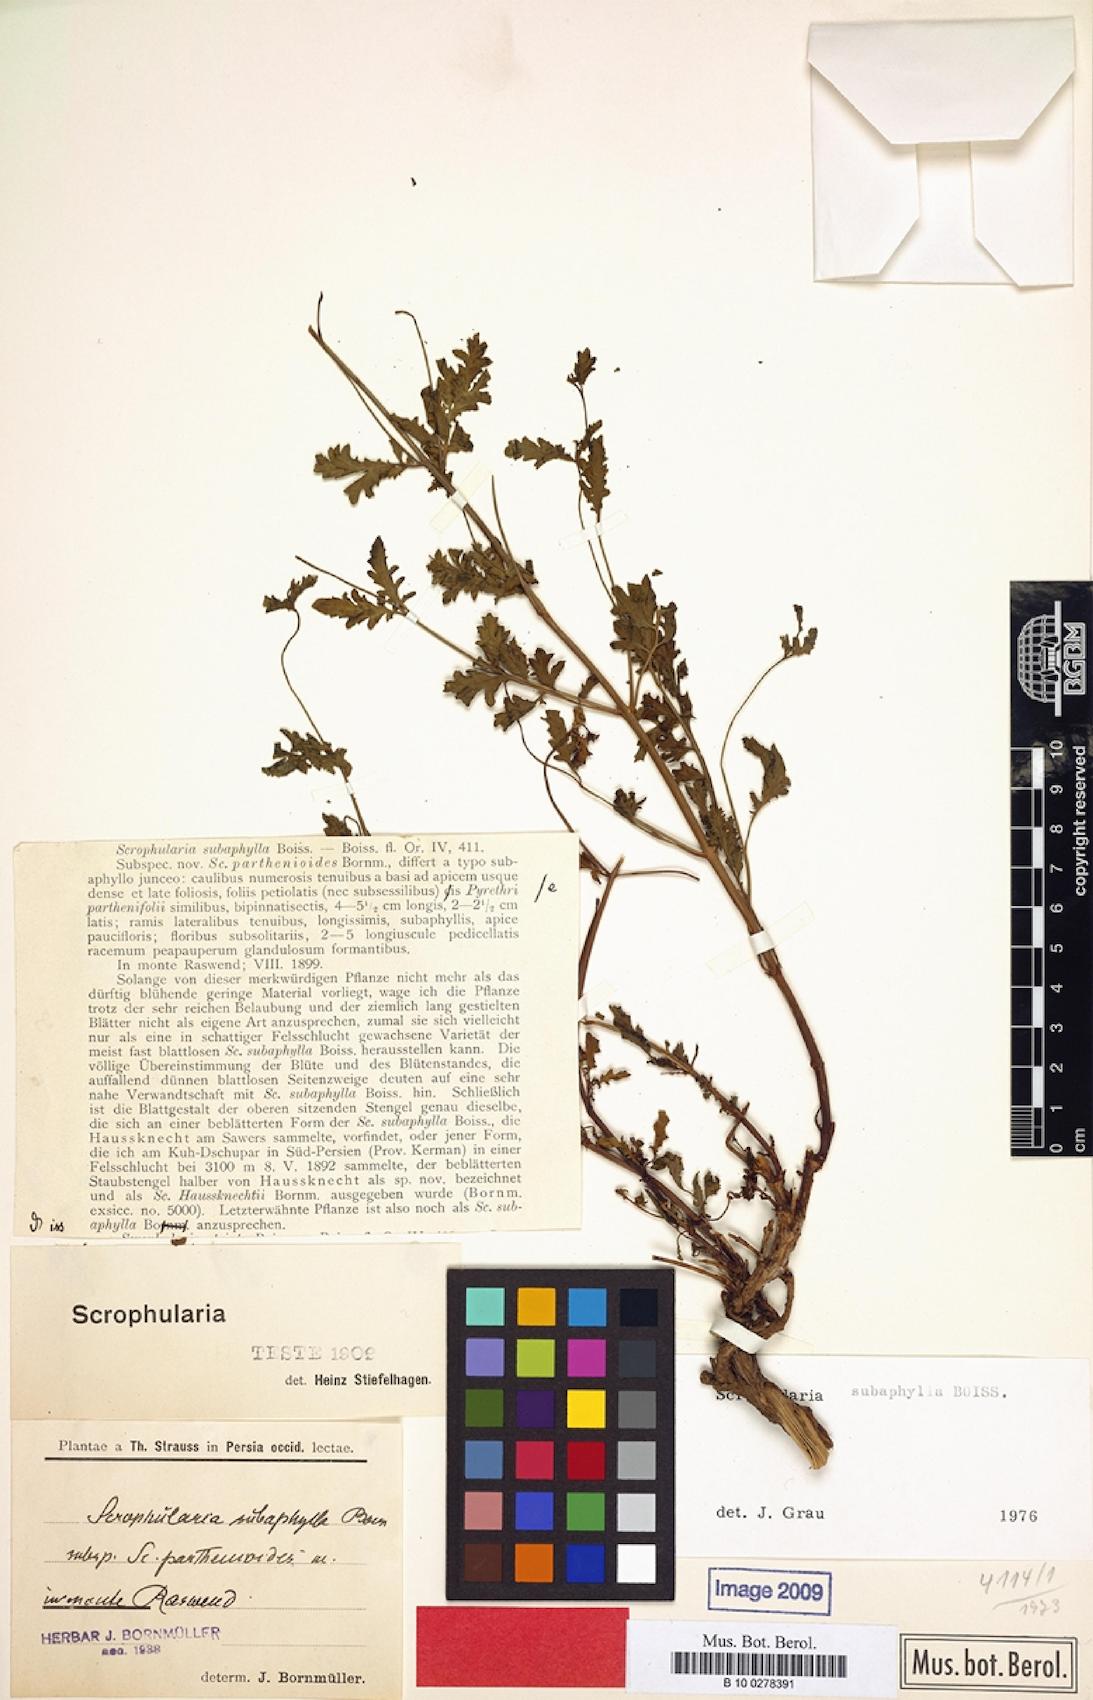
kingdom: Plantae
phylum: Tracheophyta
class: Magnoliopsida
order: Lamiales
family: Scrophulariaceae
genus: Scrophularia
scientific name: Scrophularia subaphylla
